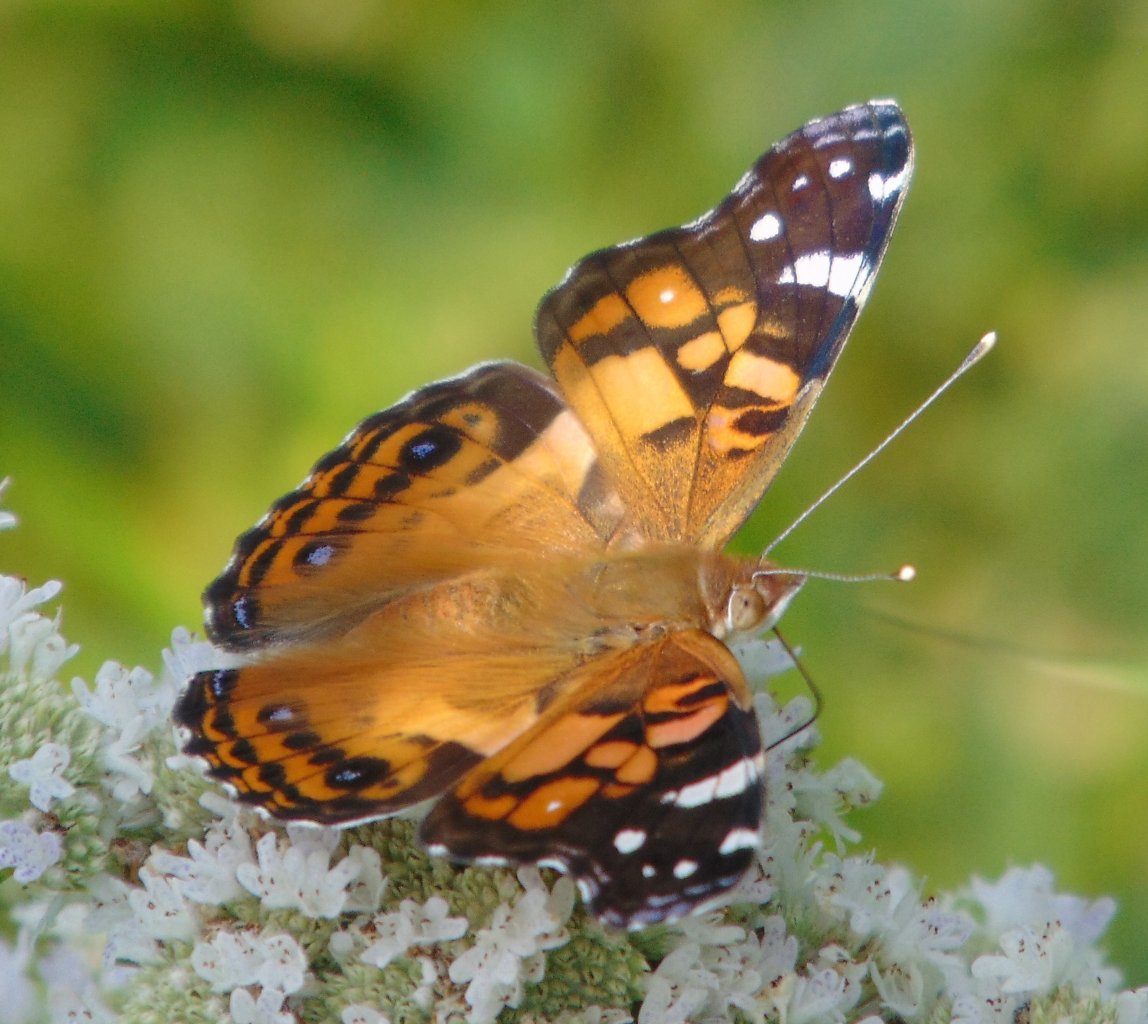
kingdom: Animalia
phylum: Arthropoda
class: Insecta
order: Lepidoptera
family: Nymphalidae
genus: Vanessa
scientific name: Vanessa virginiensis
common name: American Lady
